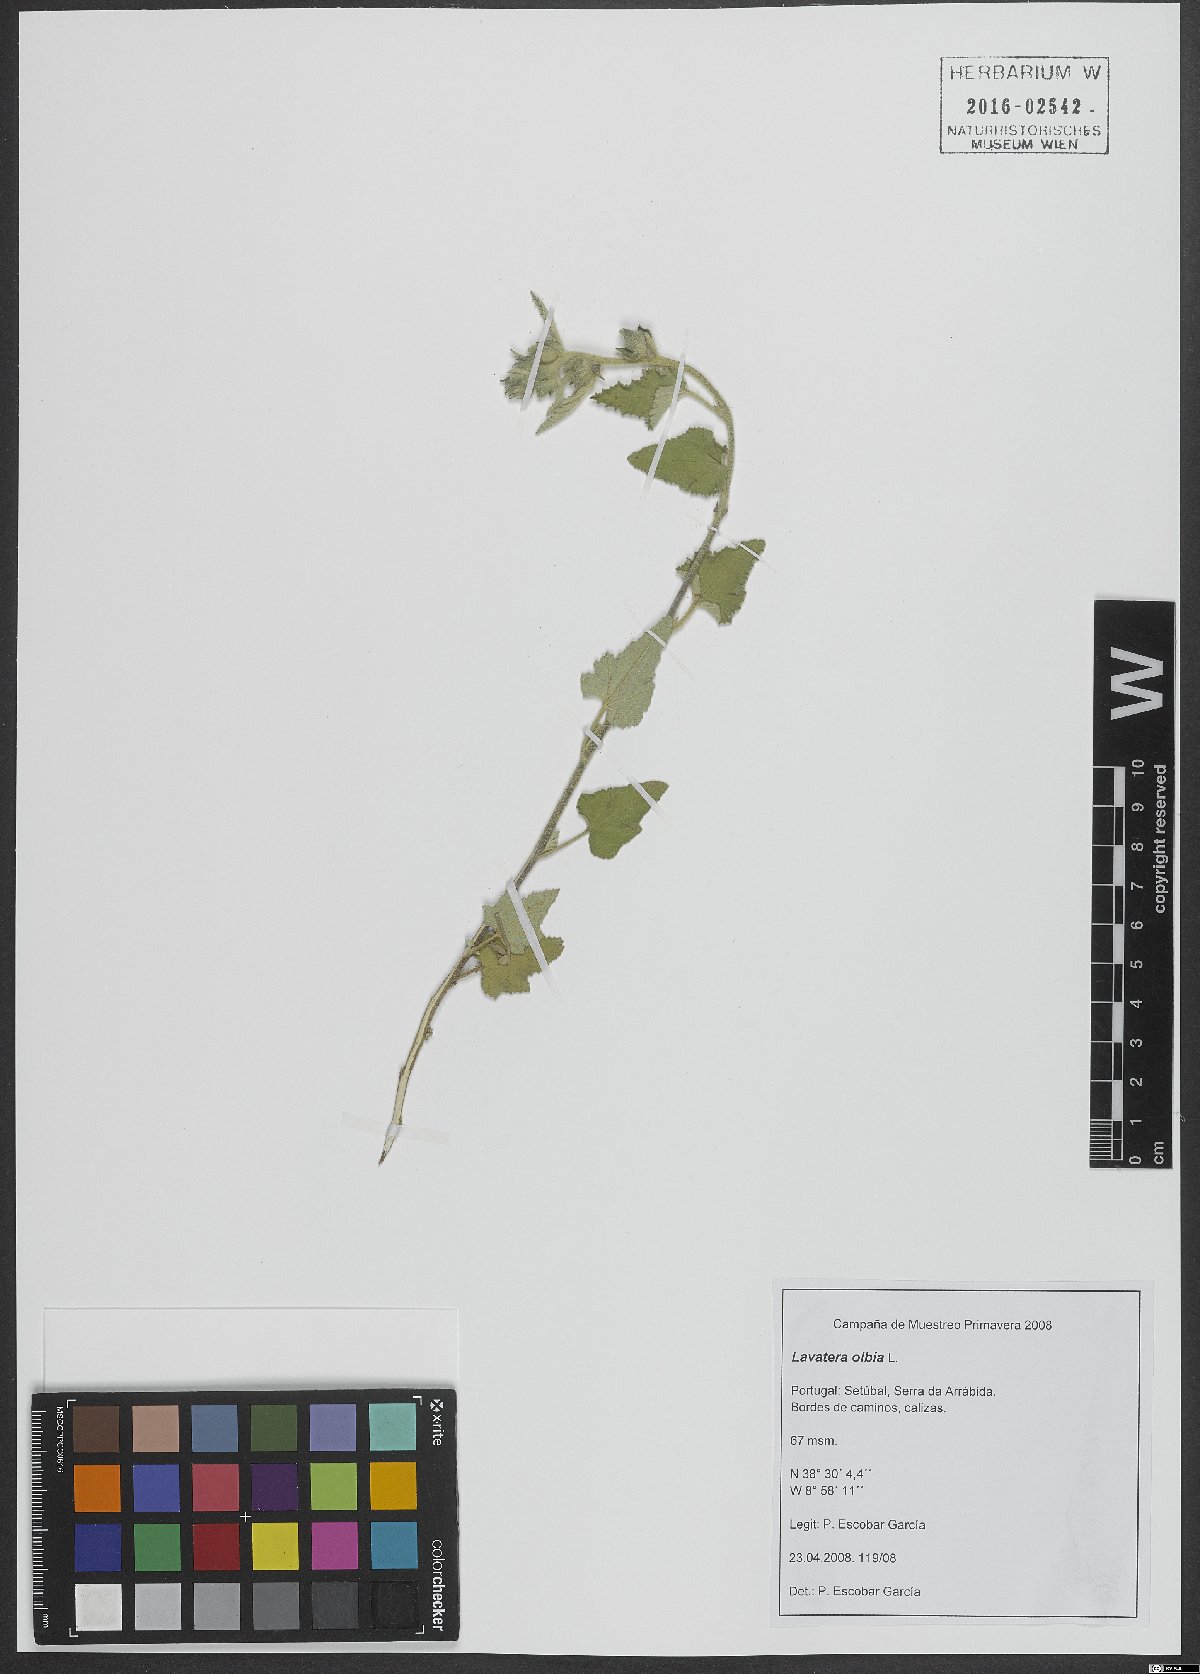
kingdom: Plantae
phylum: Tracheophyta
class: Magnoliopsida
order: Malvales
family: Malvaceae
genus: Malva
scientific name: Malva olbia
